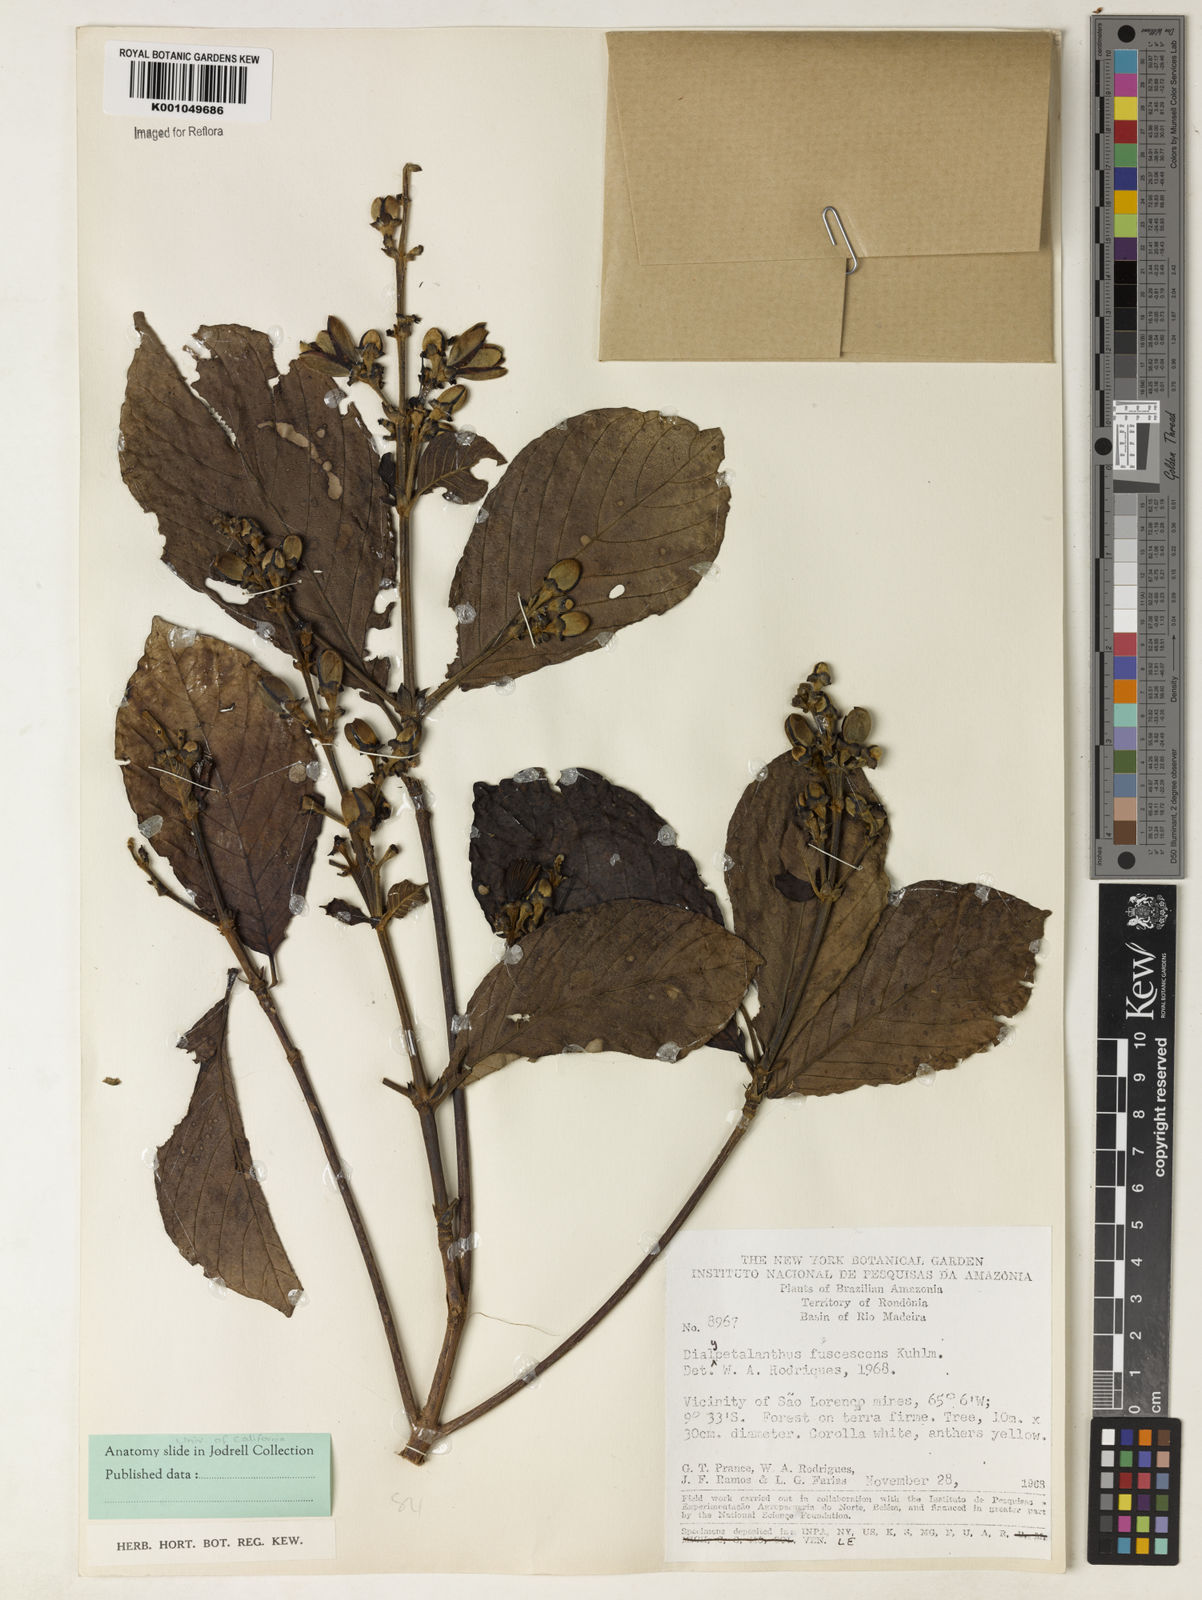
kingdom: Plantae
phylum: Tracheophyta
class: Magnoliopsida
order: Gentianales
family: Rubiaceae
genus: Dialypetalanthus
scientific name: Dialypetalanthus fuscescens
